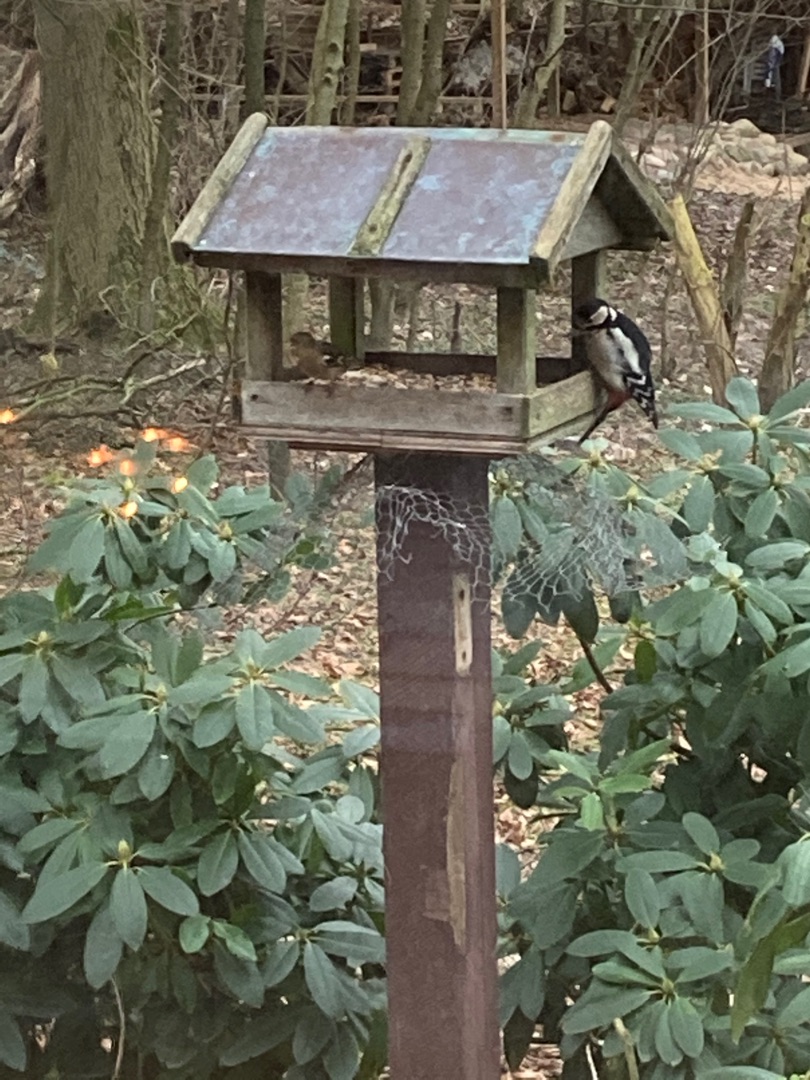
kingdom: Animalia
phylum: Chordata
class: Aves
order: Piciformes
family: Picidae
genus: Dendrocopos
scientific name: Dendrocopos major
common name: Stor flagspætte
